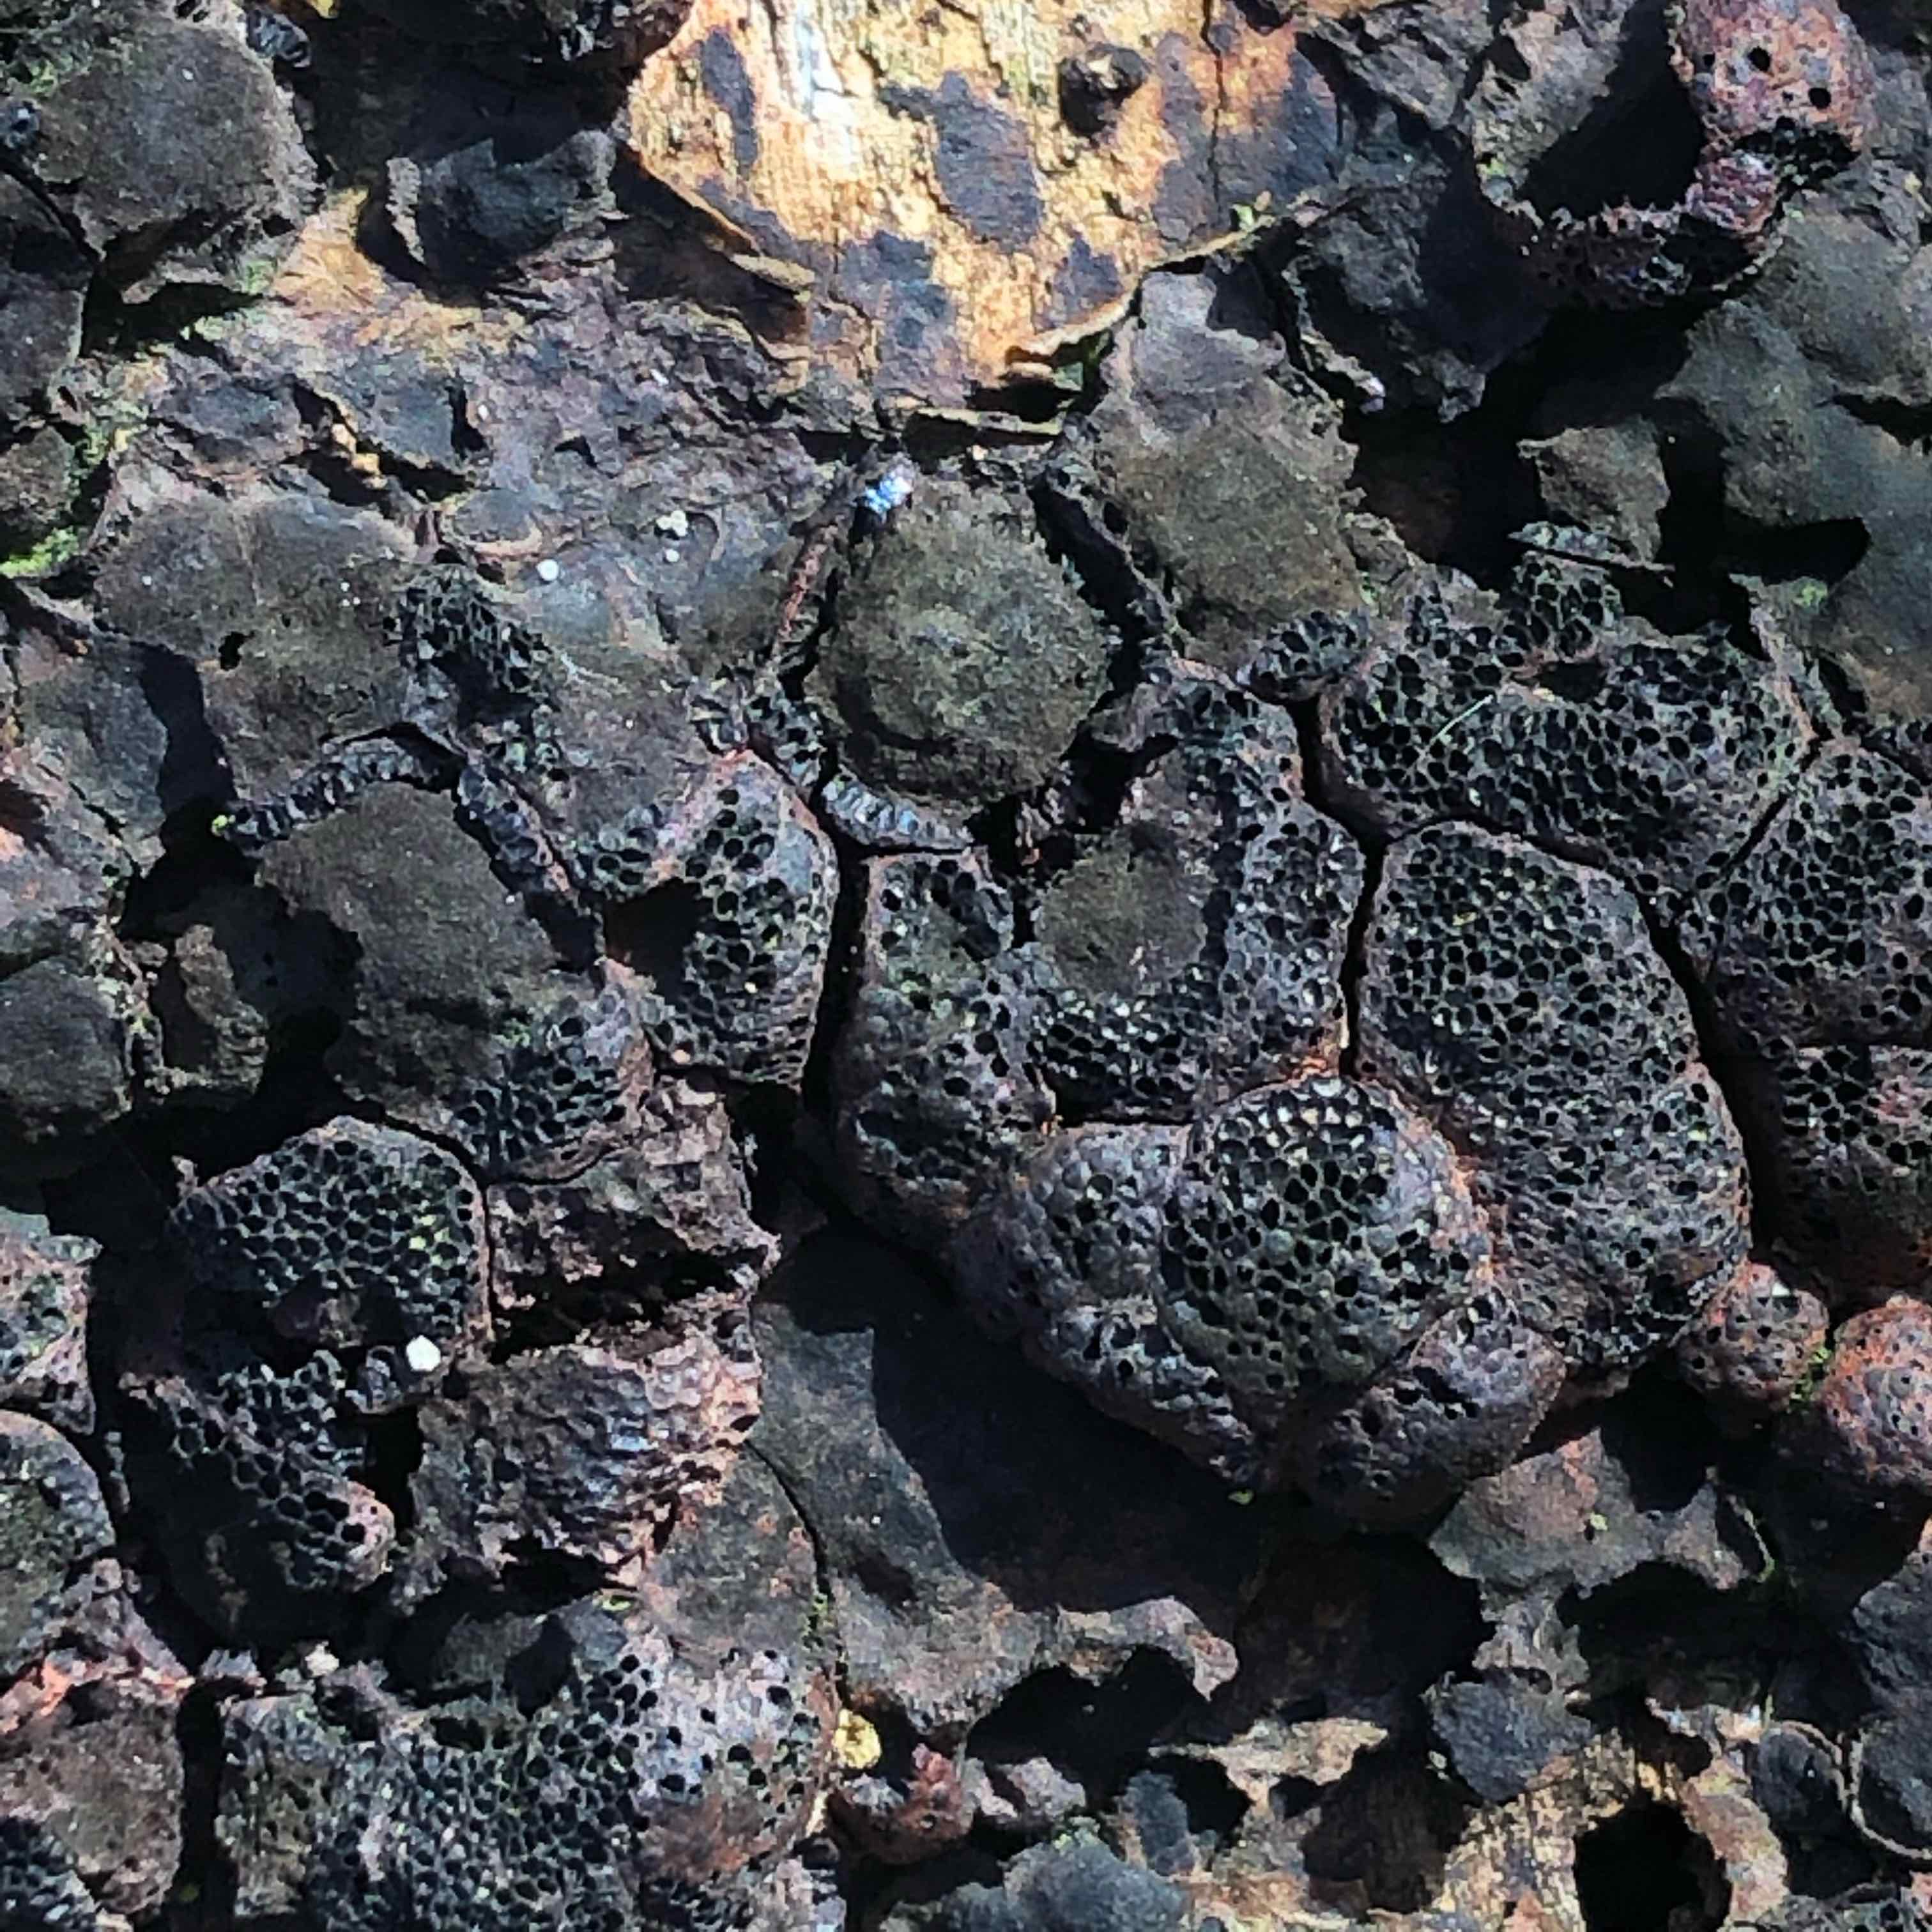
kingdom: Fungi
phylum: Ascomycota
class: Sordariomycetes
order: Xylariales
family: Hypoxylaceae
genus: Hypoxylon
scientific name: Hypoxylon fragiforme
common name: kuljordbær
